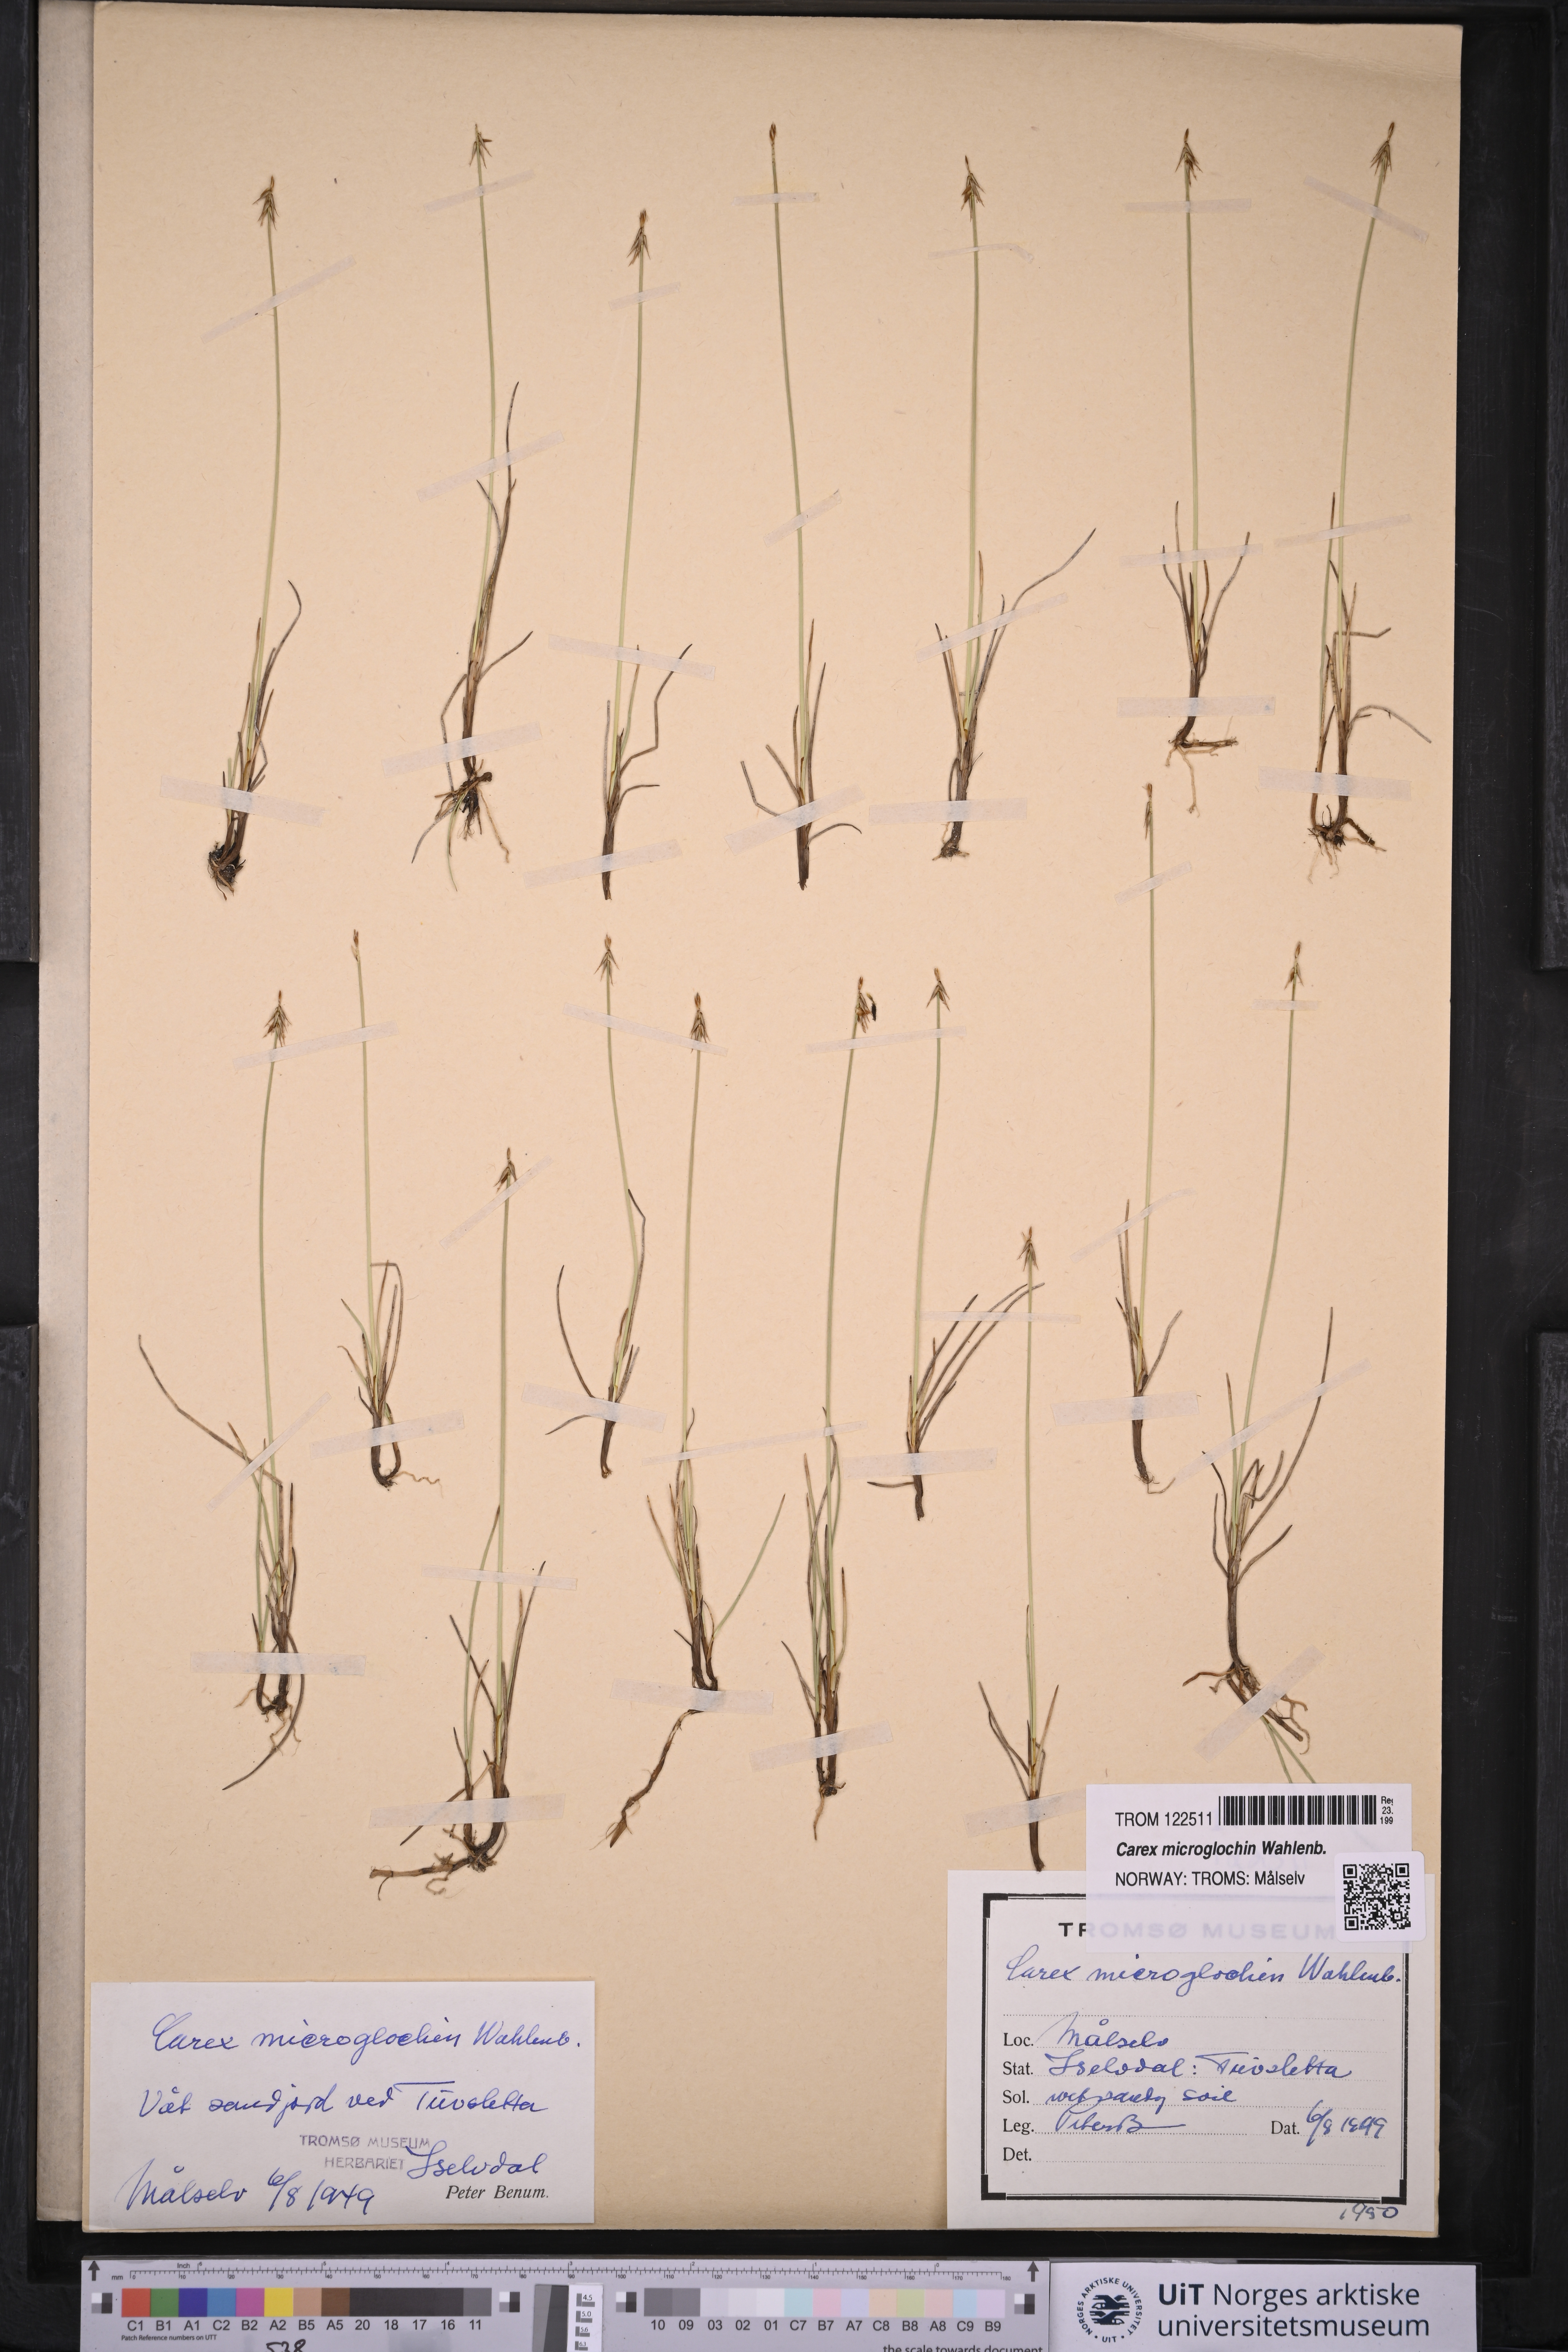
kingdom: Plantae
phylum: Tracheophyta
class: Liliopsida
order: Poales
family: Cyperaceae
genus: Carex
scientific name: Carex microglochin
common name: Bristle sedge
